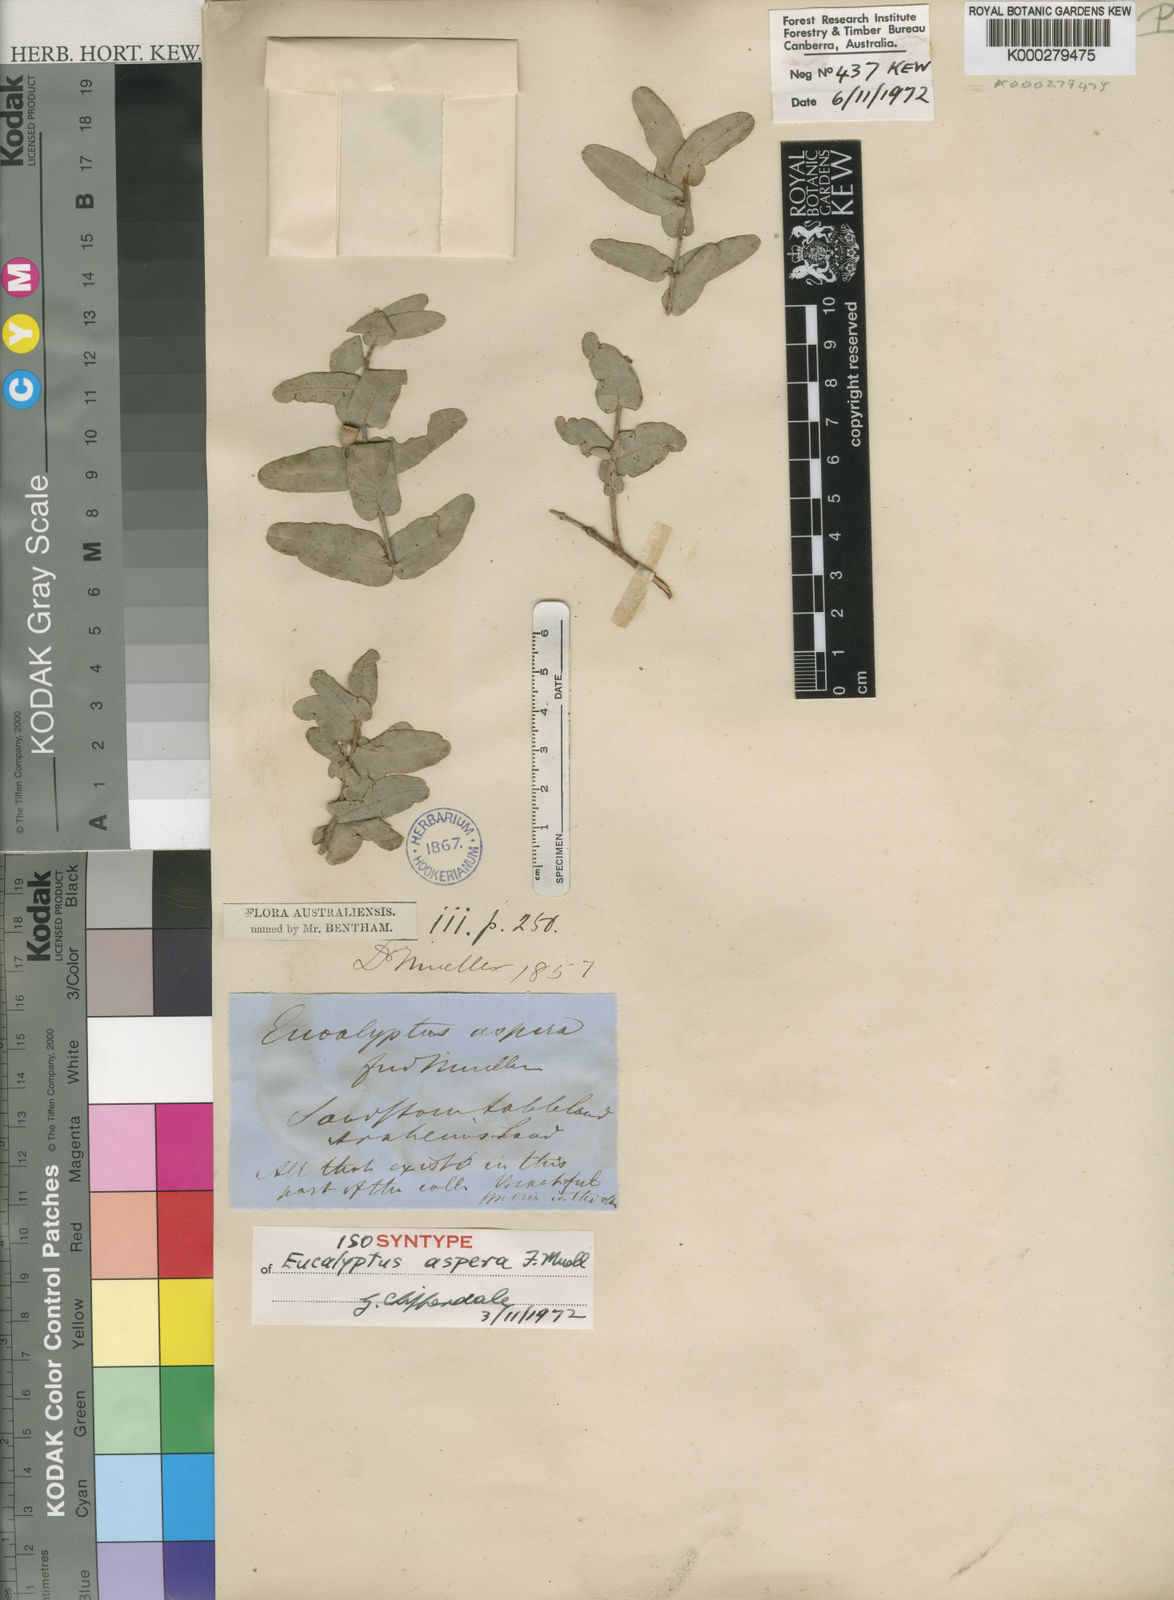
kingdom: Plantae
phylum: Tracheophyta
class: Magnoliopsida
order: Myrtales
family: Myrtaceae
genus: Corymbia
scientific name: Corymbia aspera
